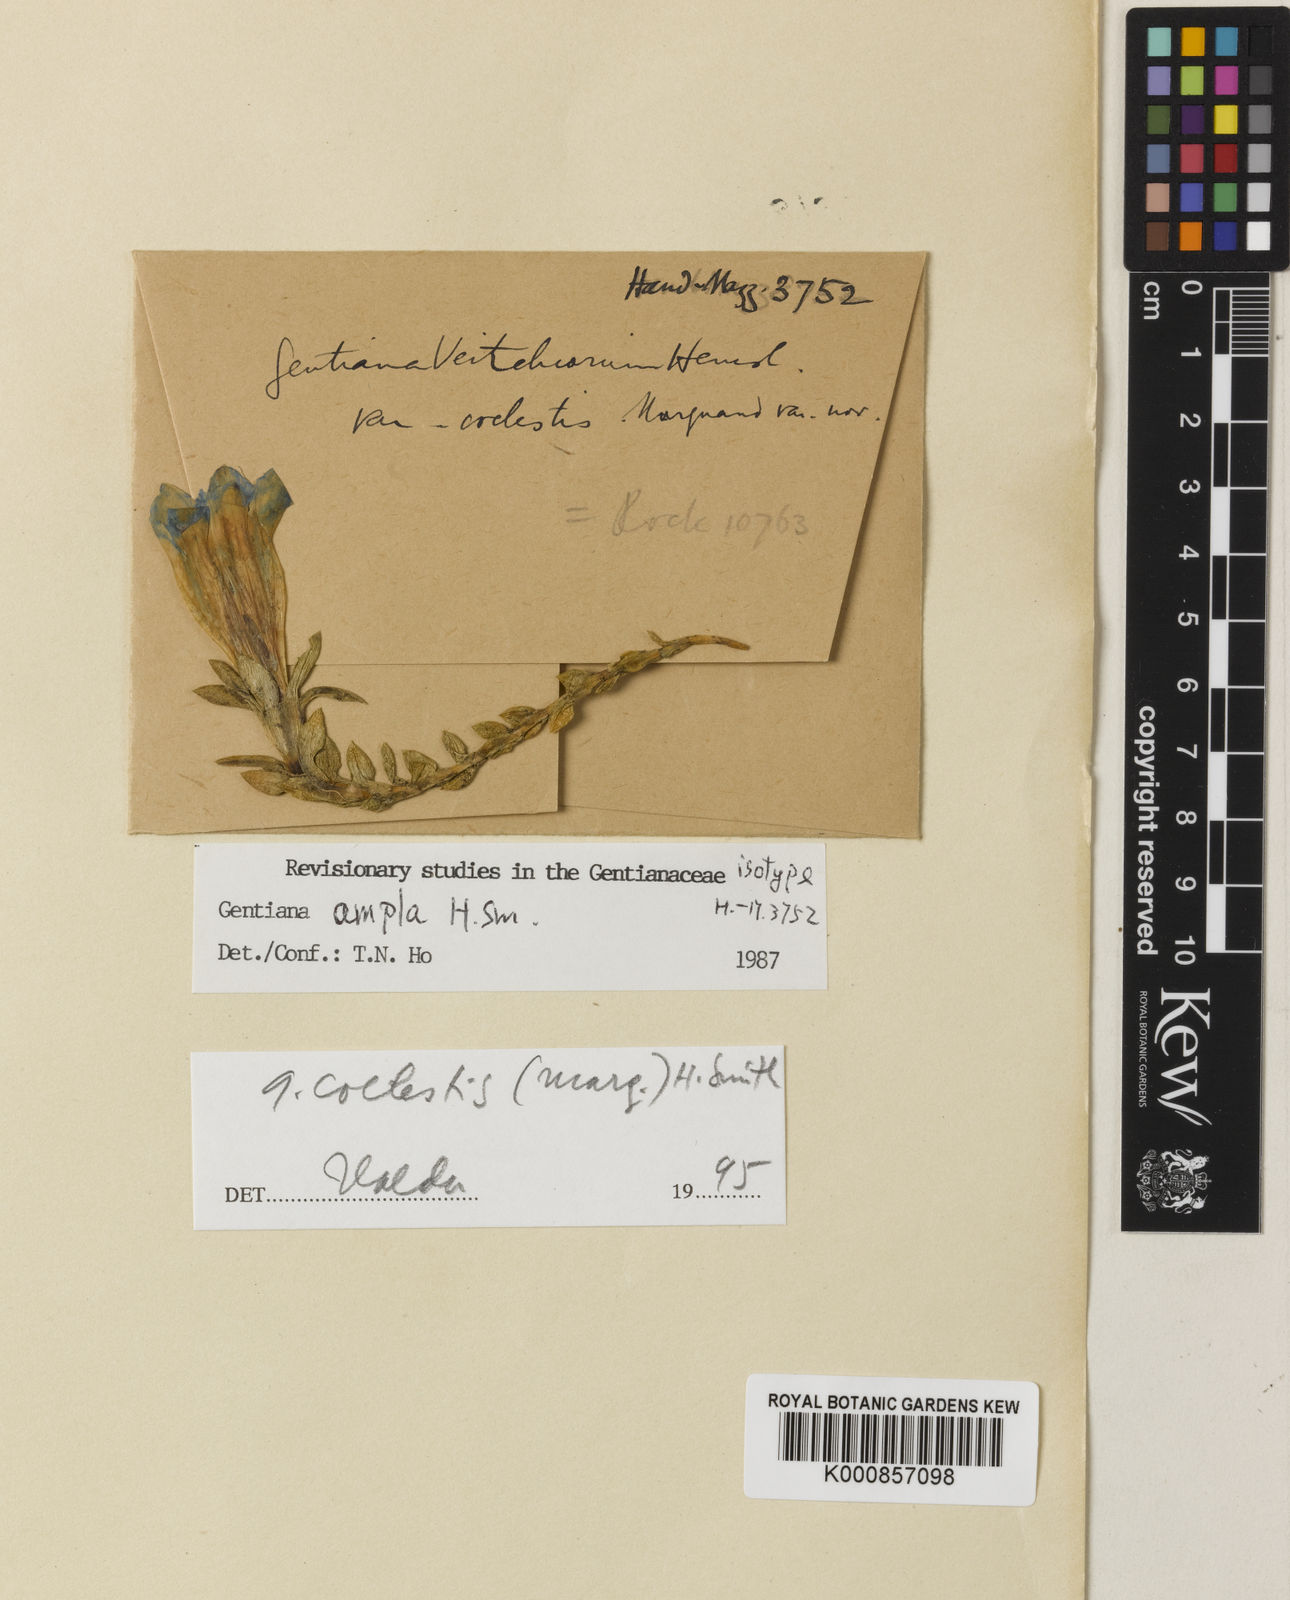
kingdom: Plantae
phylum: Tracheophyta
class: Magnoliopsida
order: Gentianales
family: Gentianaceae
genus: Gentiana
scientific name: Gentiana caelestis
